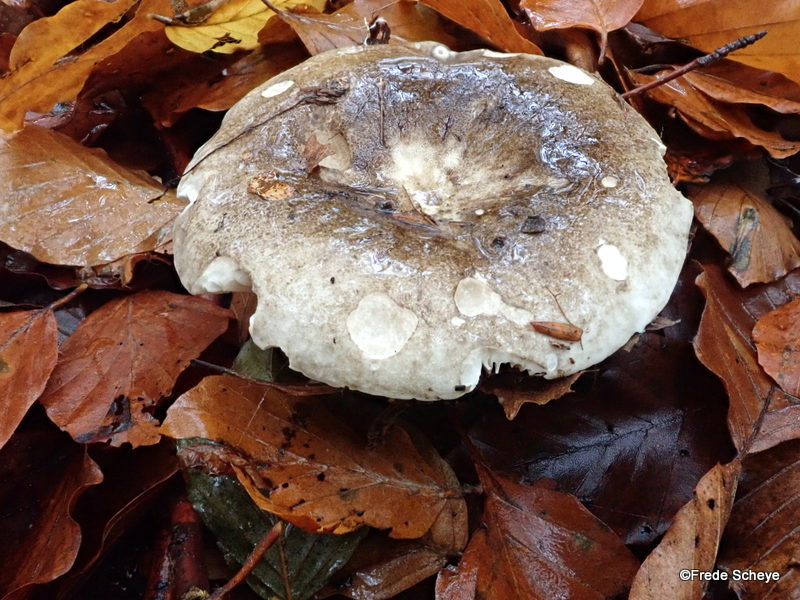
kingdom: Fungi
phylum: Basidiomycota
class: Agaricomycetes
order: Russulales
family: Russulaceae
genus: Russula
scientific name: Russula adusta
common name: sværtende skørhat
